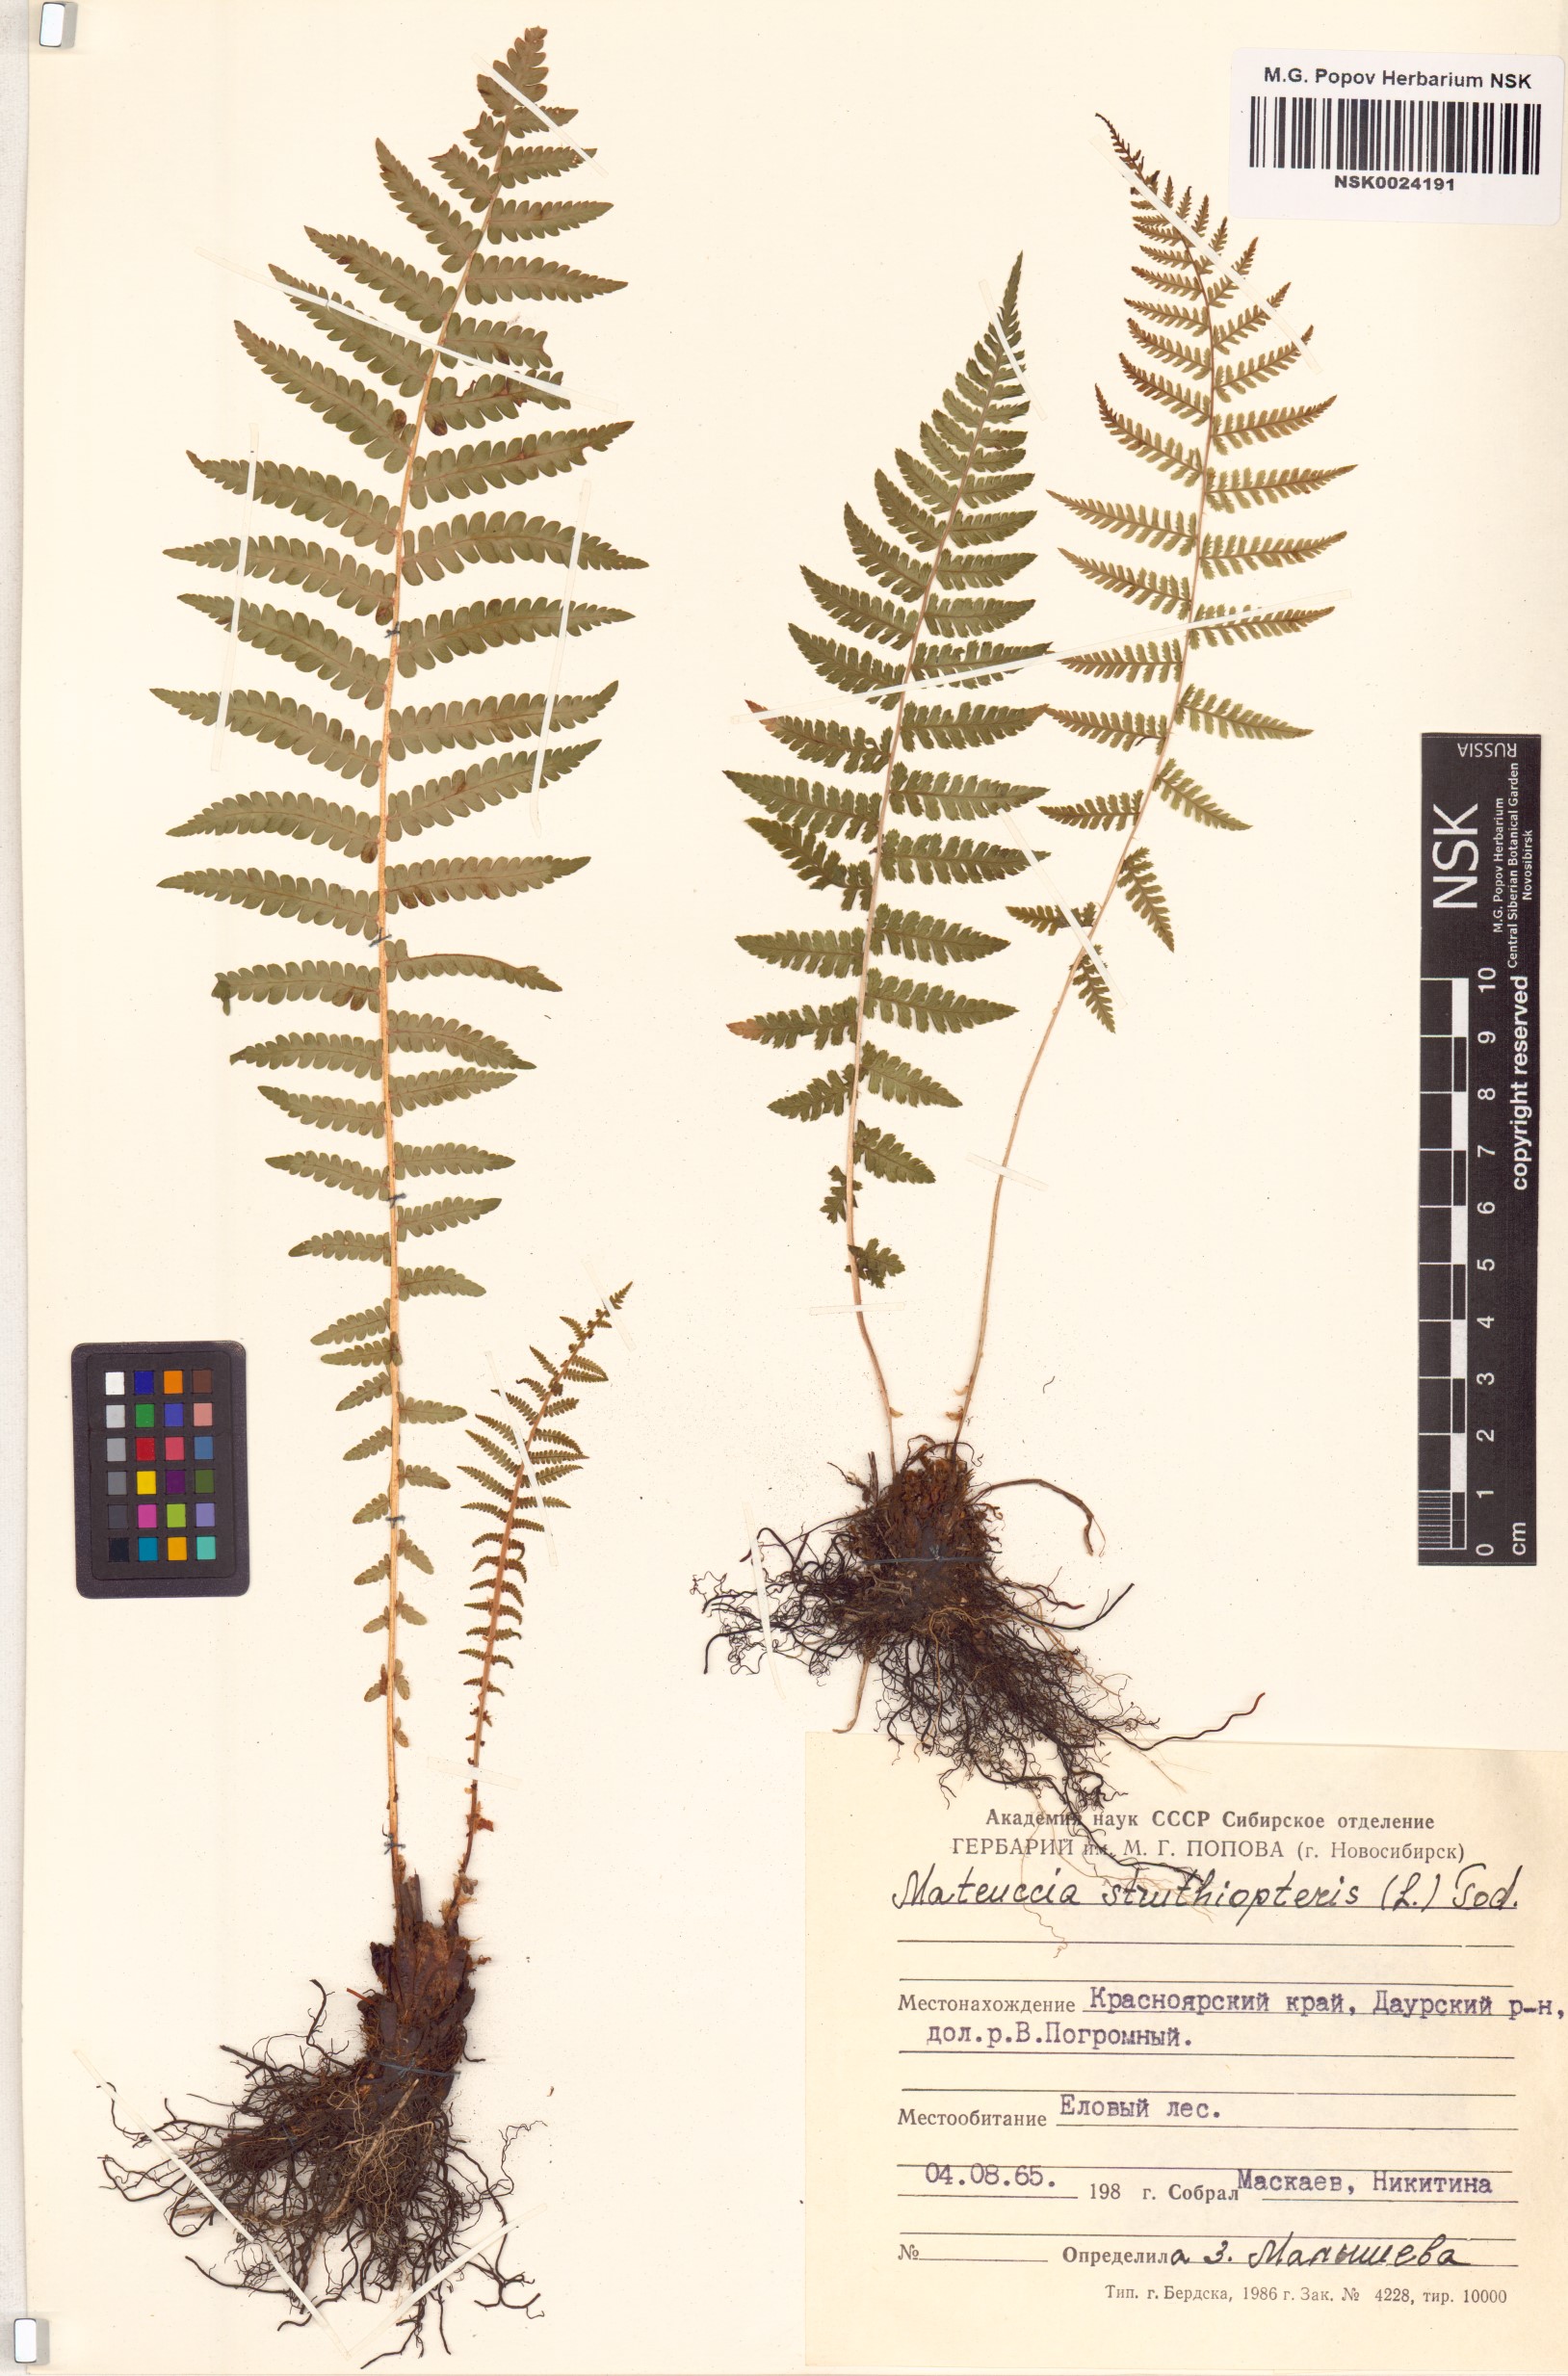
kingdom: Plantae
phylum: Tracheophyta
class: Polypodiopsida
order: Polypodiales
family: Onocleaceae
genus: Matteuccia
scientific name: Matteuccia struthiopteris
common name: Ostrich fern
